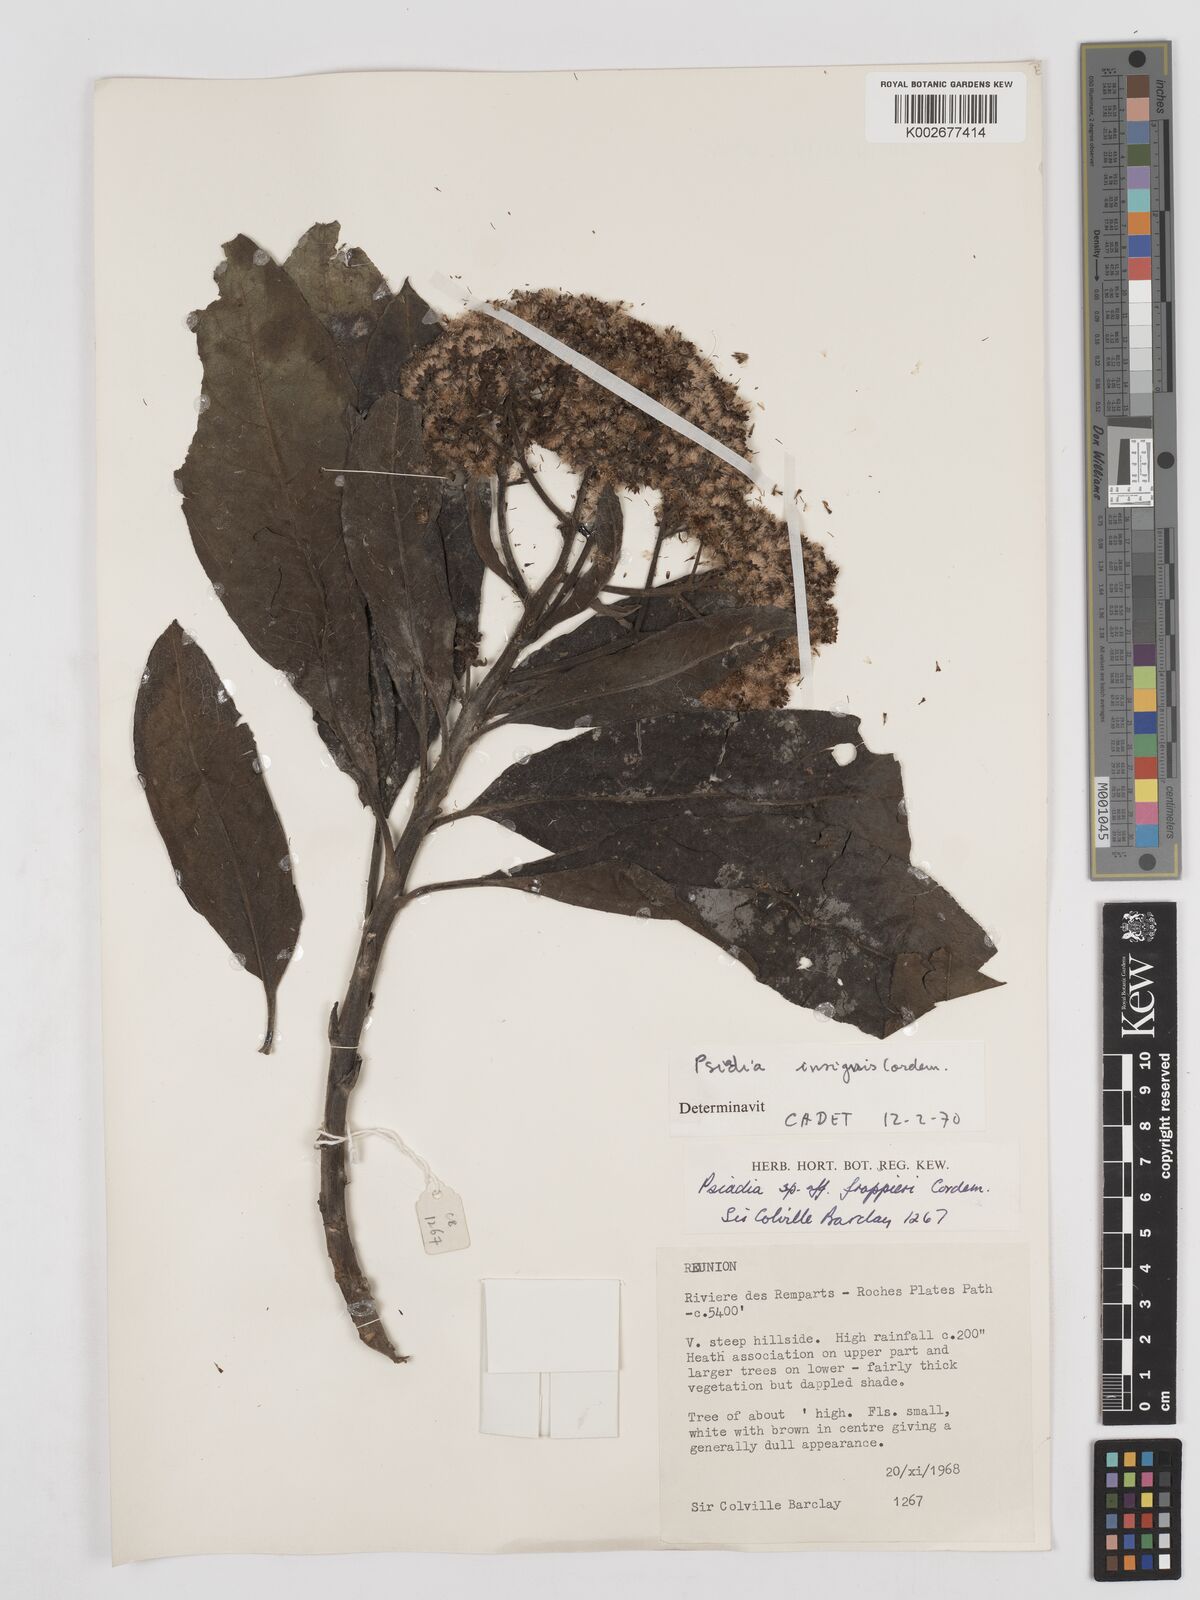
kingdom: Plantae
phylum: Tracheophyta
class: Magnoliopsida
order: Asterales
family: Asteraceae
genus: Psiadia
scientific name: Psiadia insignis
